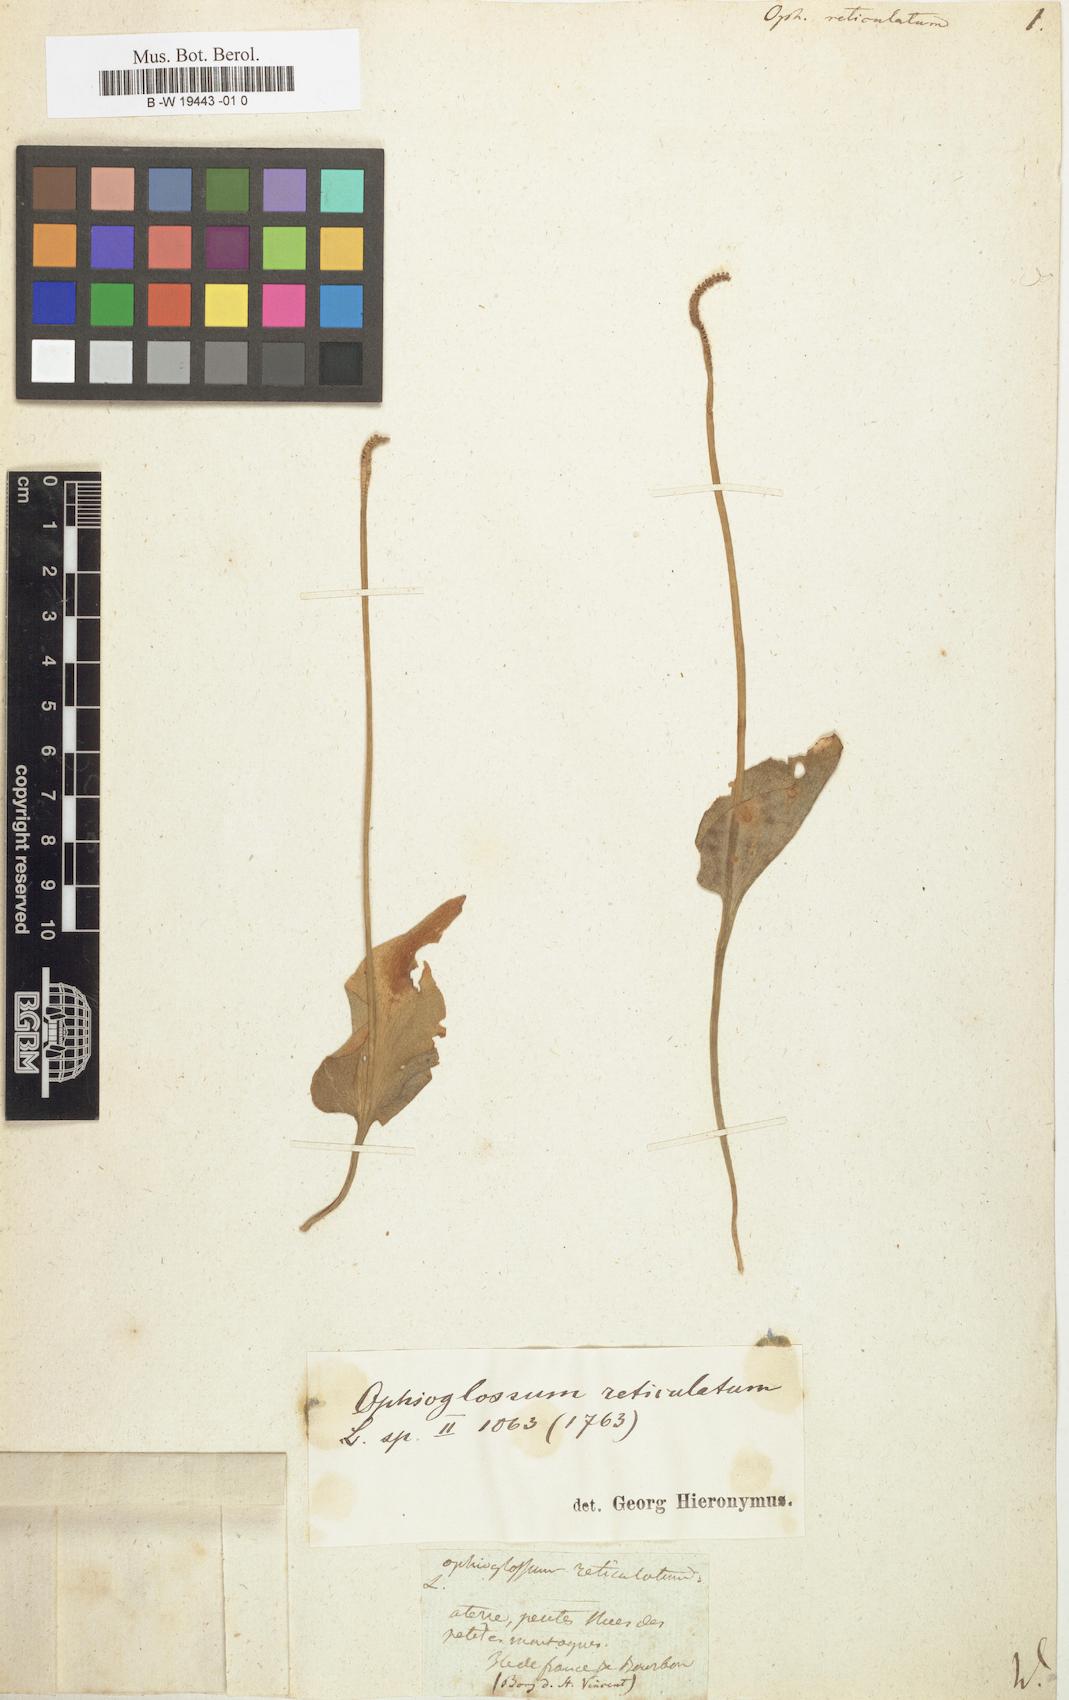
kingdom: Plantae
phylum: Tracheophyta
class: Polypodiopsida
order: Ophioglossales
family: Ophioglossaceae
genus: Ophioglossum
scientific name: Ophioglossum reticulatum
